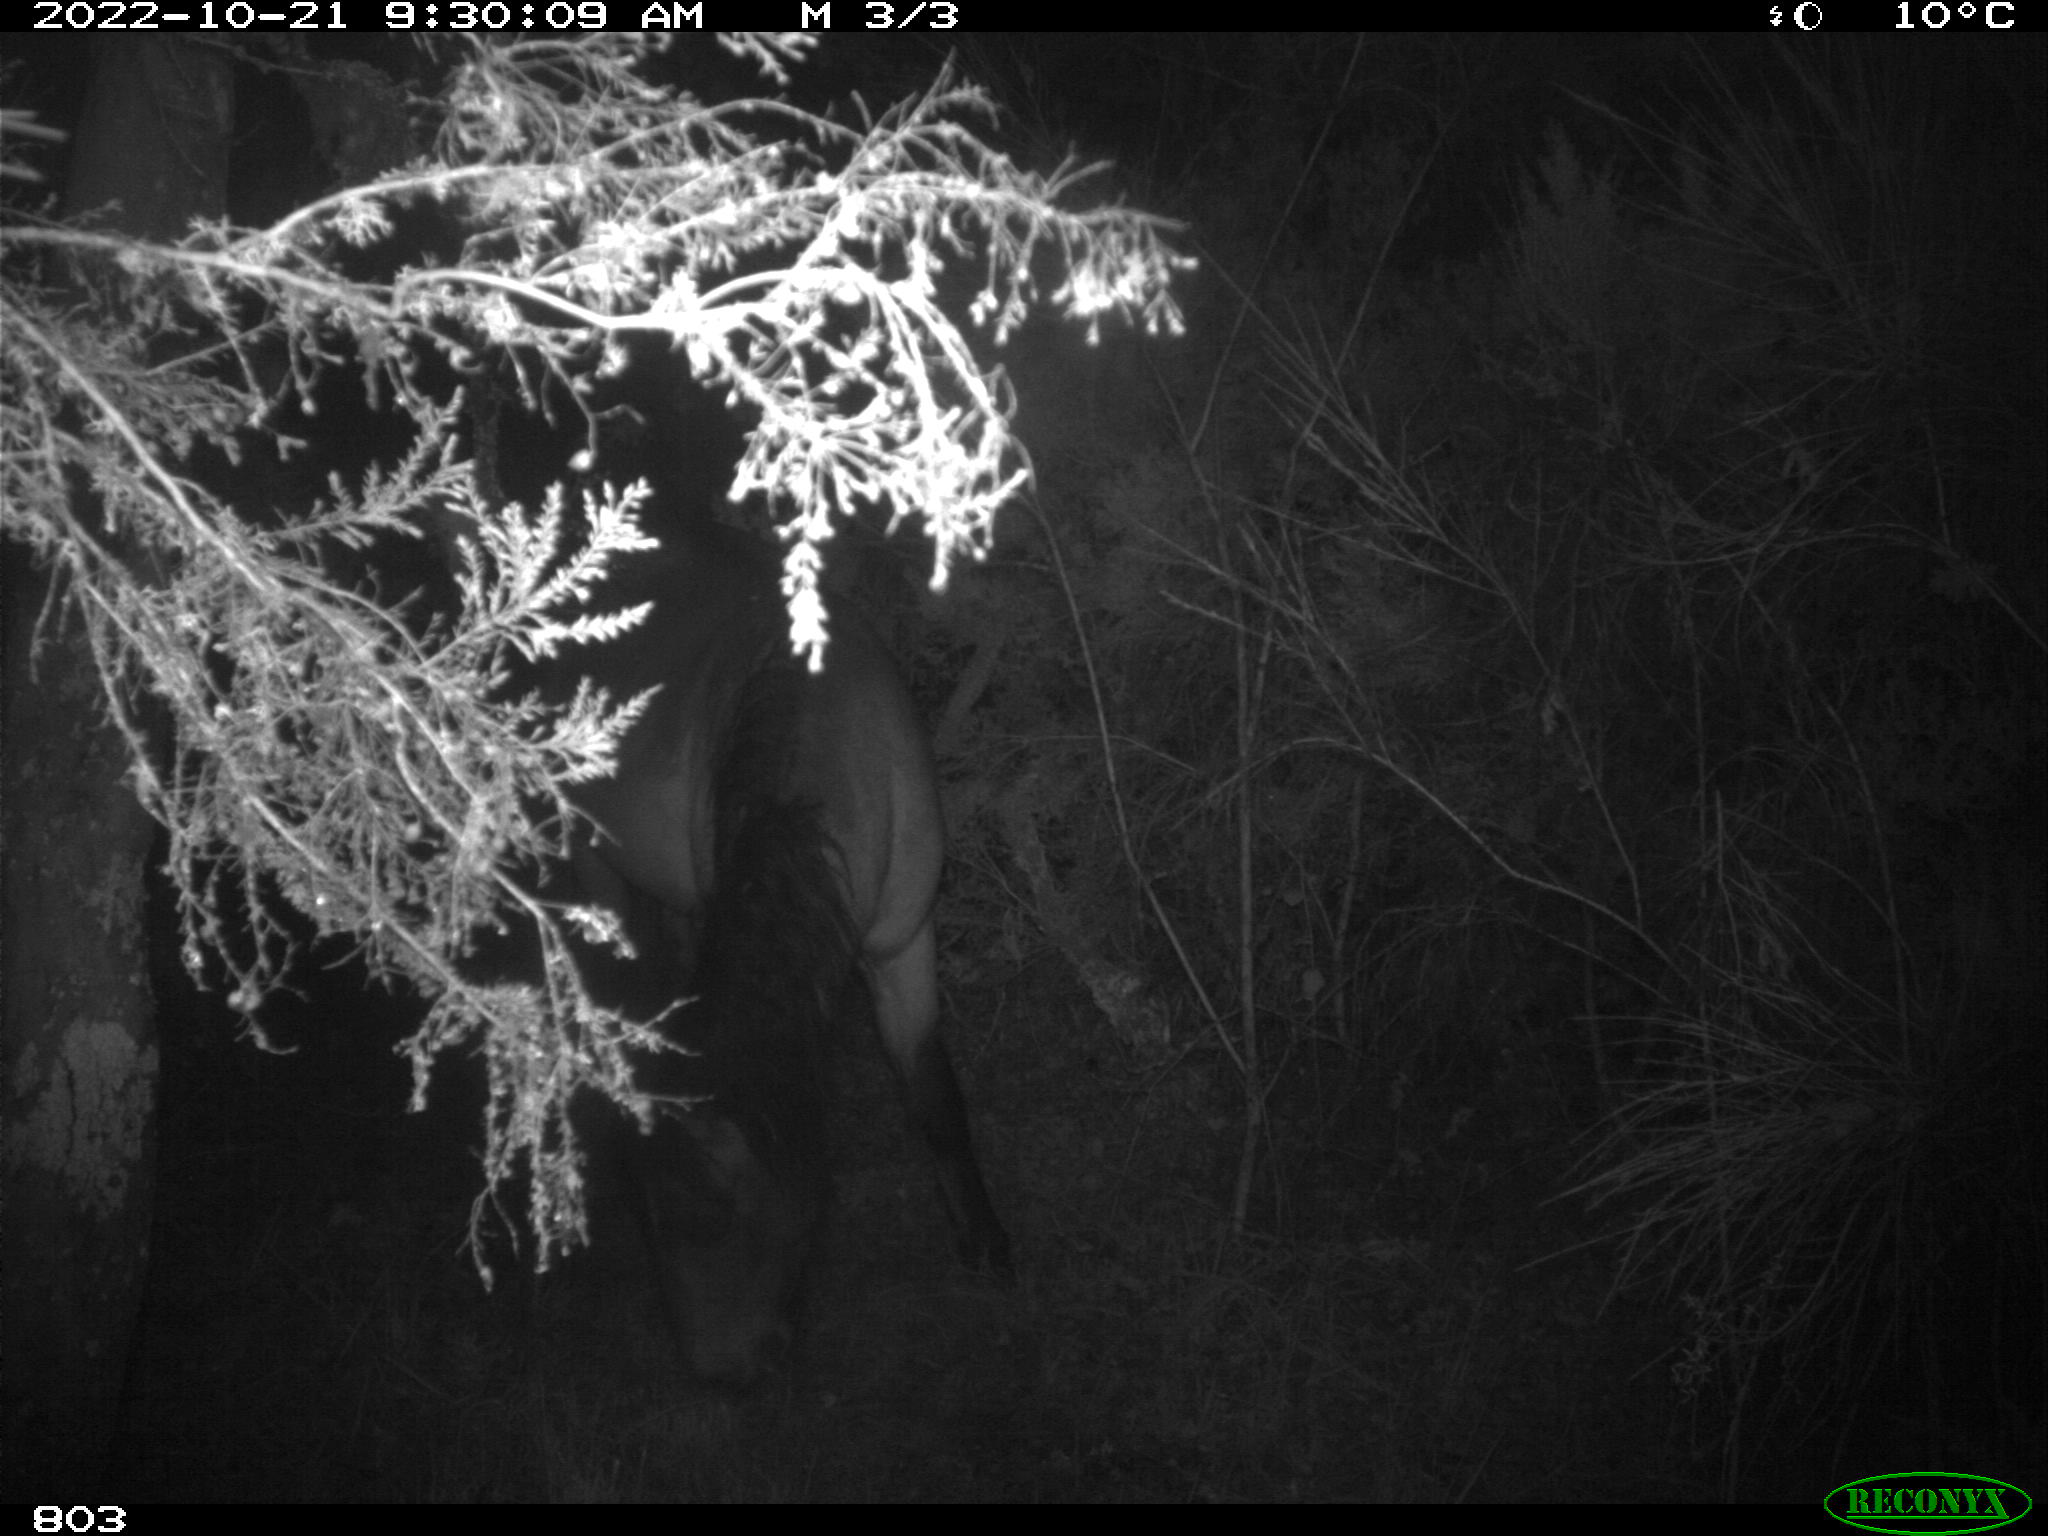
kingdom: Animalia
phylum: Chordata
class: Mammalia
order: Perissodactyla
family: Equidae
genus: Equus
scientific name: Equus caballus
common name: Horse
